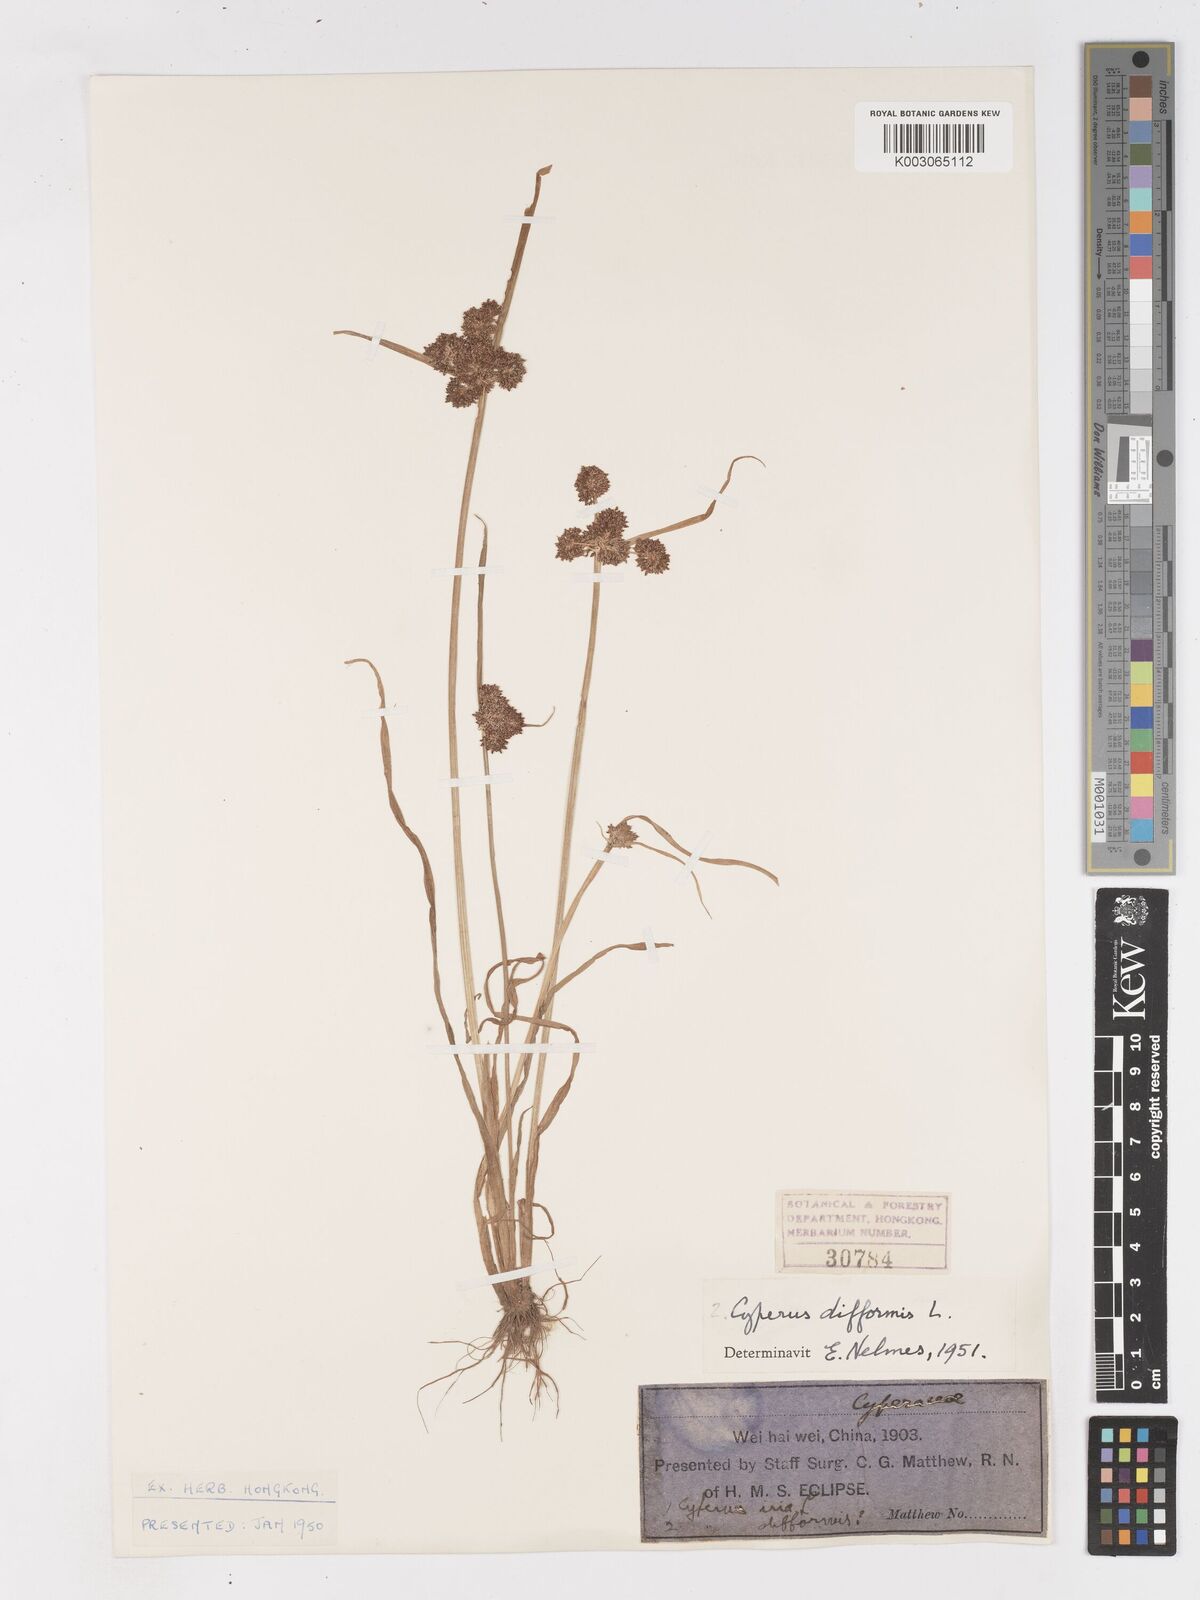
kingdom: Plantae
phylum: Tracheophyta
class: Liliopsida
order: Poales
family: Cyperaceae
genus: Cyperus
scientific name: Cyperus difformis
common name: Variable flatsedge
